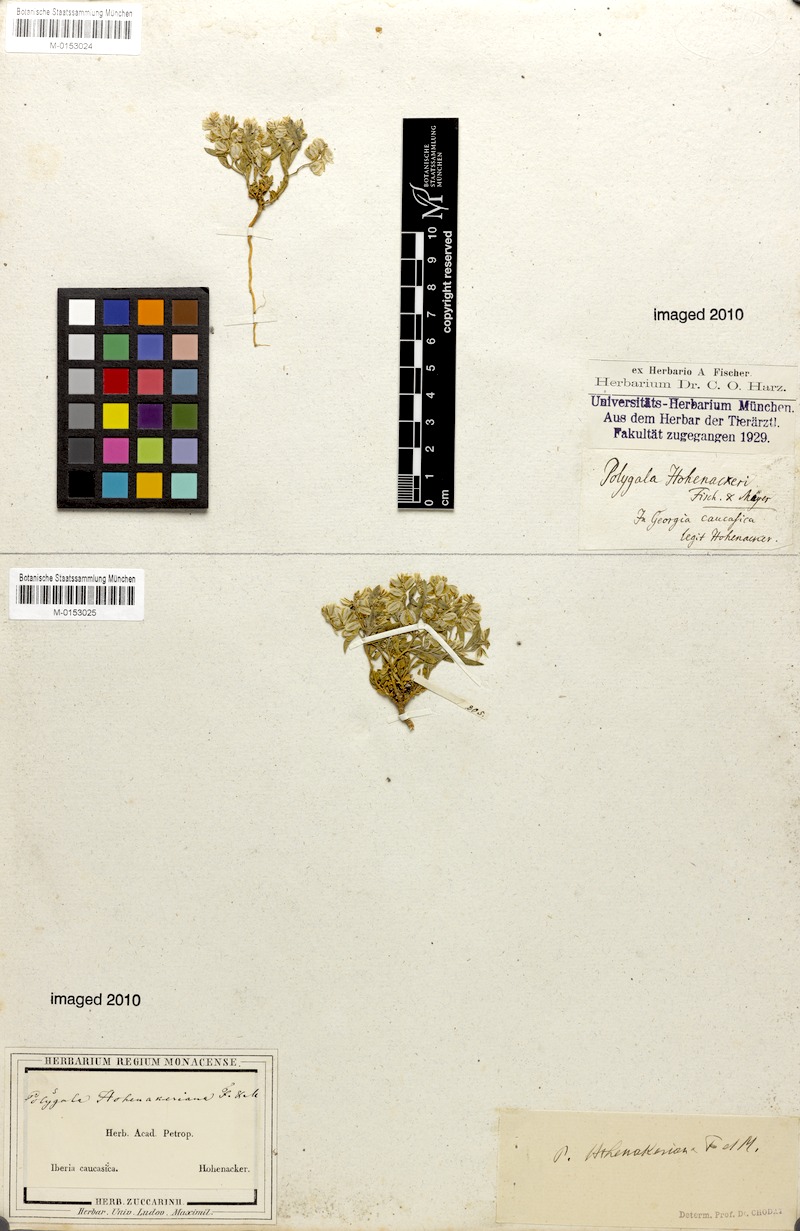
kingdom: Plantae
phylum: Tracheophyta
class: Magnoliopsida
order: Fabales
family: Polygalaceae
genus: Polygala
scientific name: Polygala hohenackeriana
